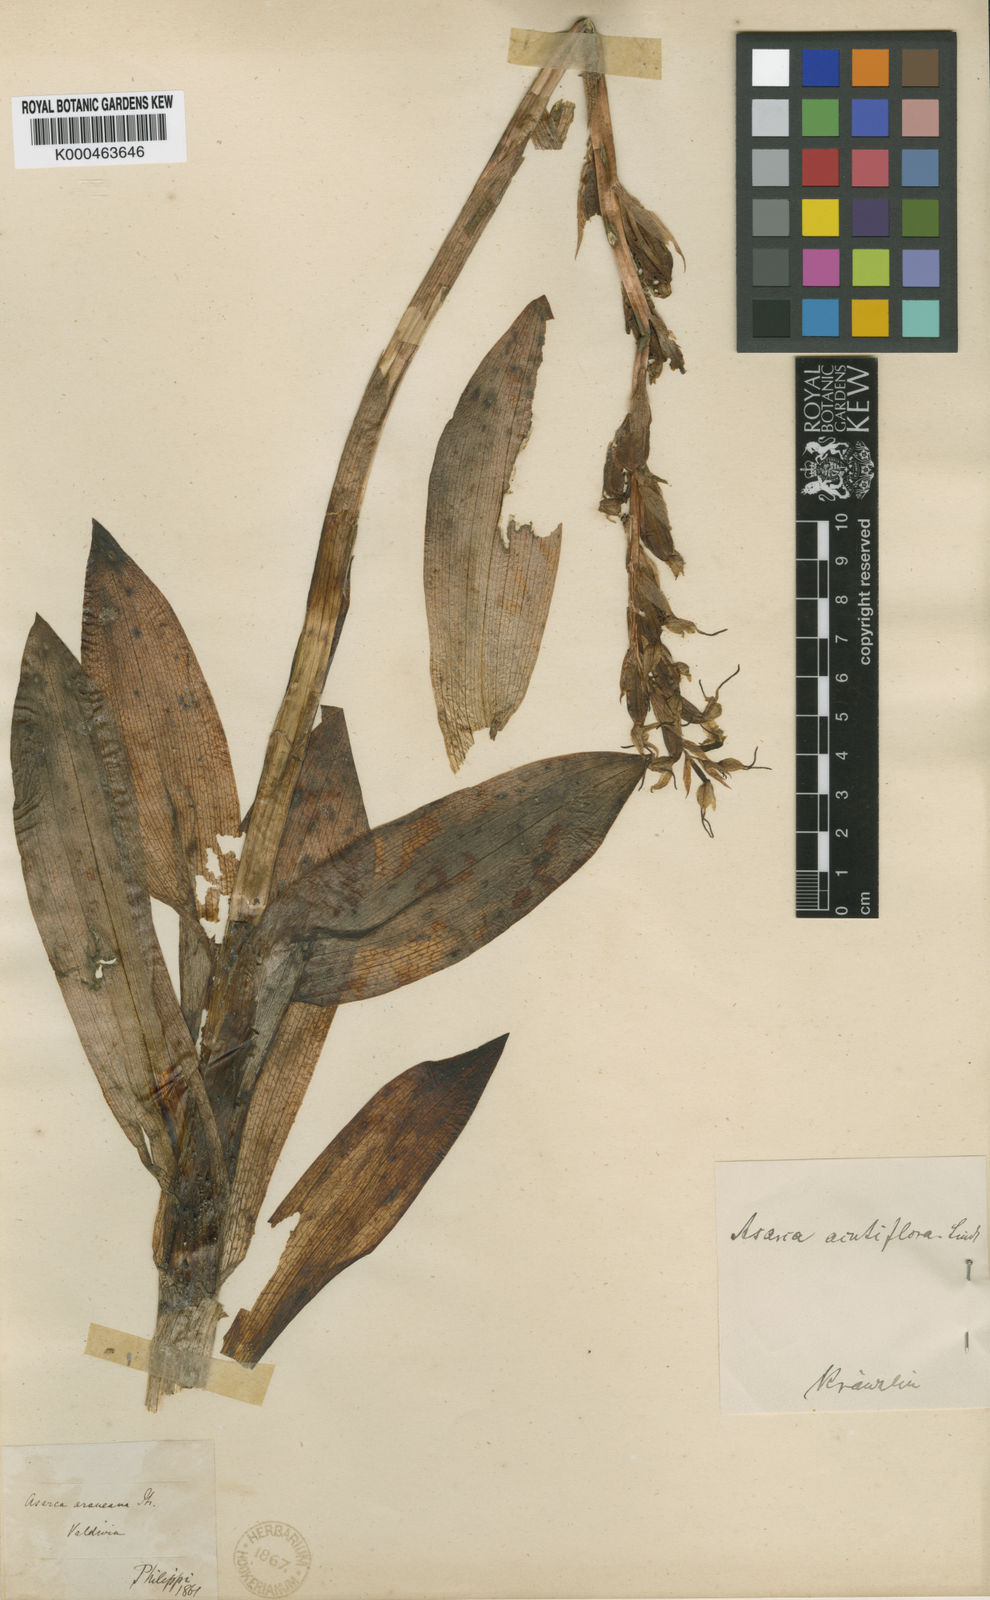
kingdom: Plantae
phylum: Tracheophyta
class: Liliopsida
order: Asparagales
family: Orchidaceae
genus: Gavilea
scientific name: Gavilea araucana
